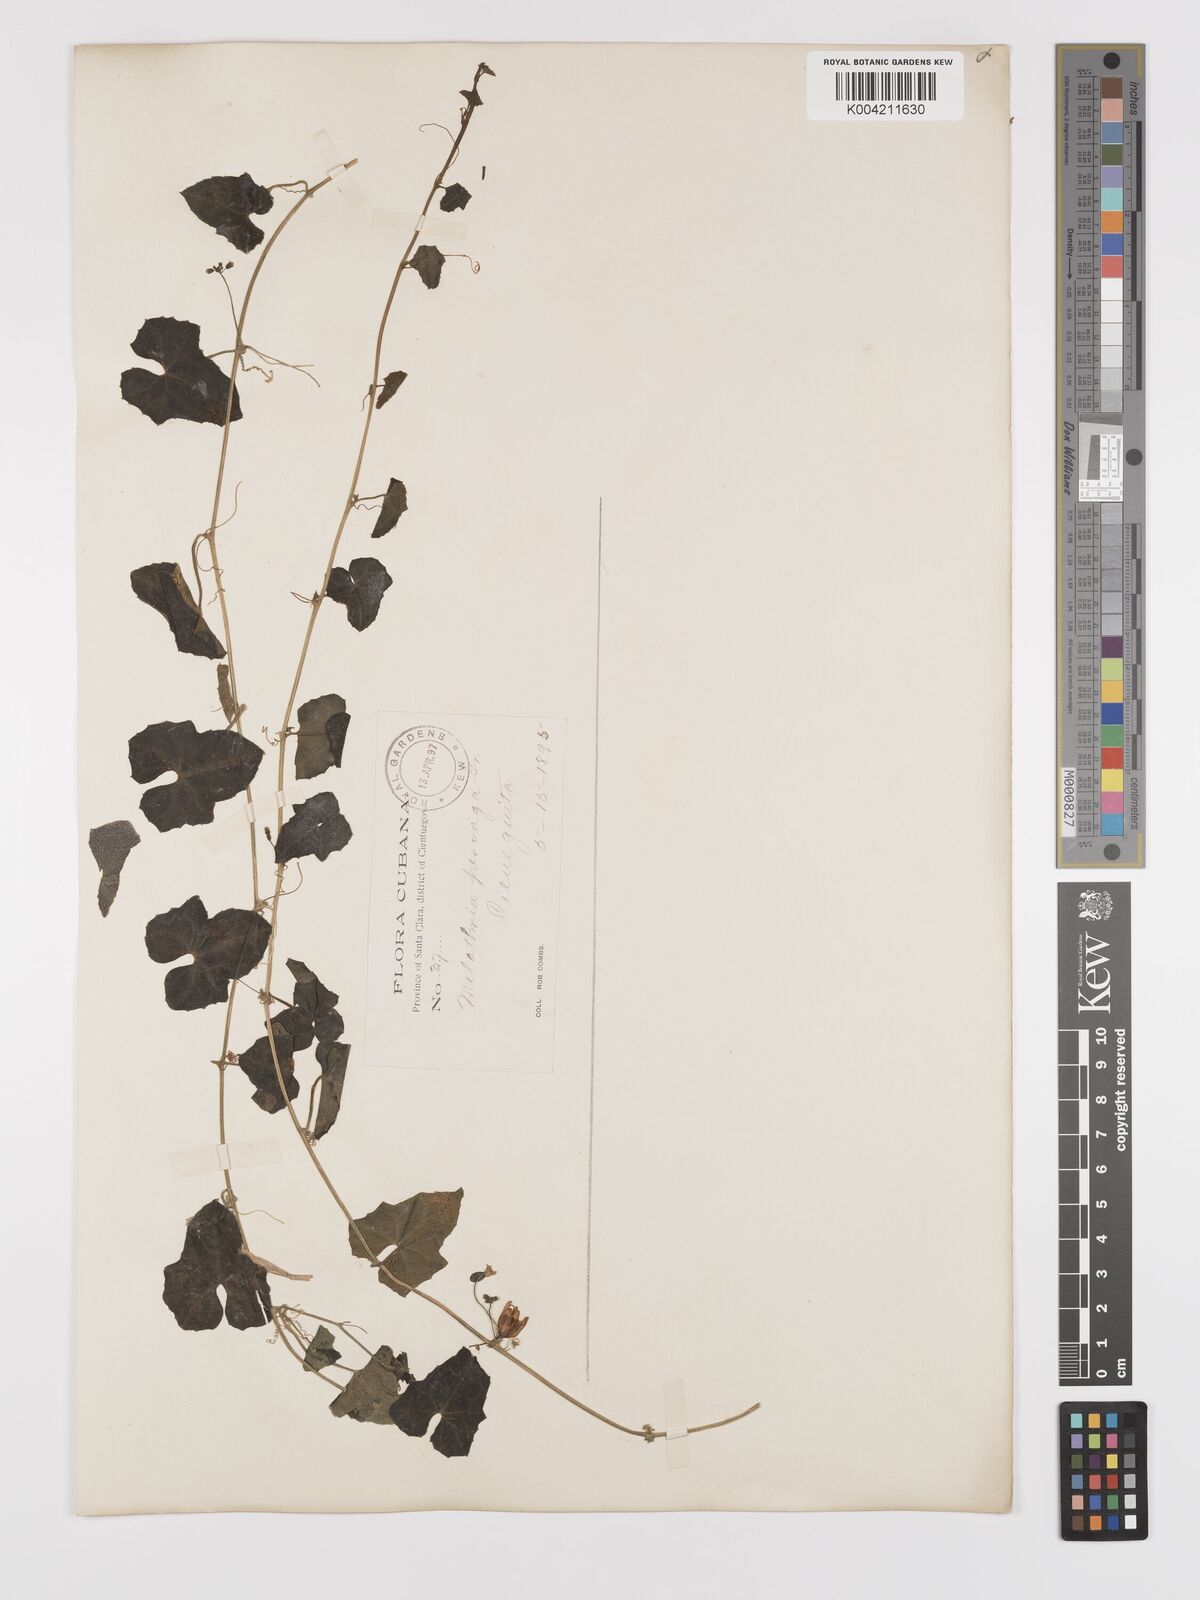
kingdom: Plantae
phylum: Tracheophyta
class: Magnoliopsida
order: Cucurbitales
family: Cucurbitaceae
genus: Melothria
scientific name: Melothria
